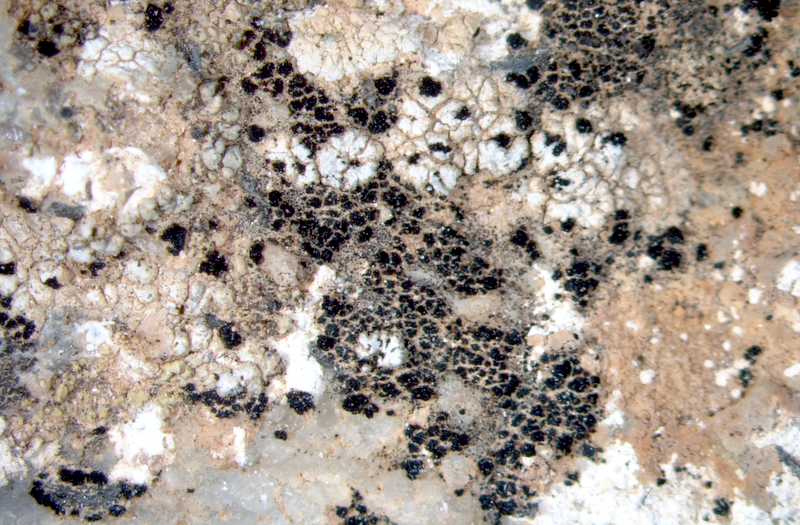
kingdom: Fungi
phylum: Ascomycota
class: Lecanoromycetes
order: Caliciales
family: Caliciaceae
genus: Buellia
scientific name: Buellia
